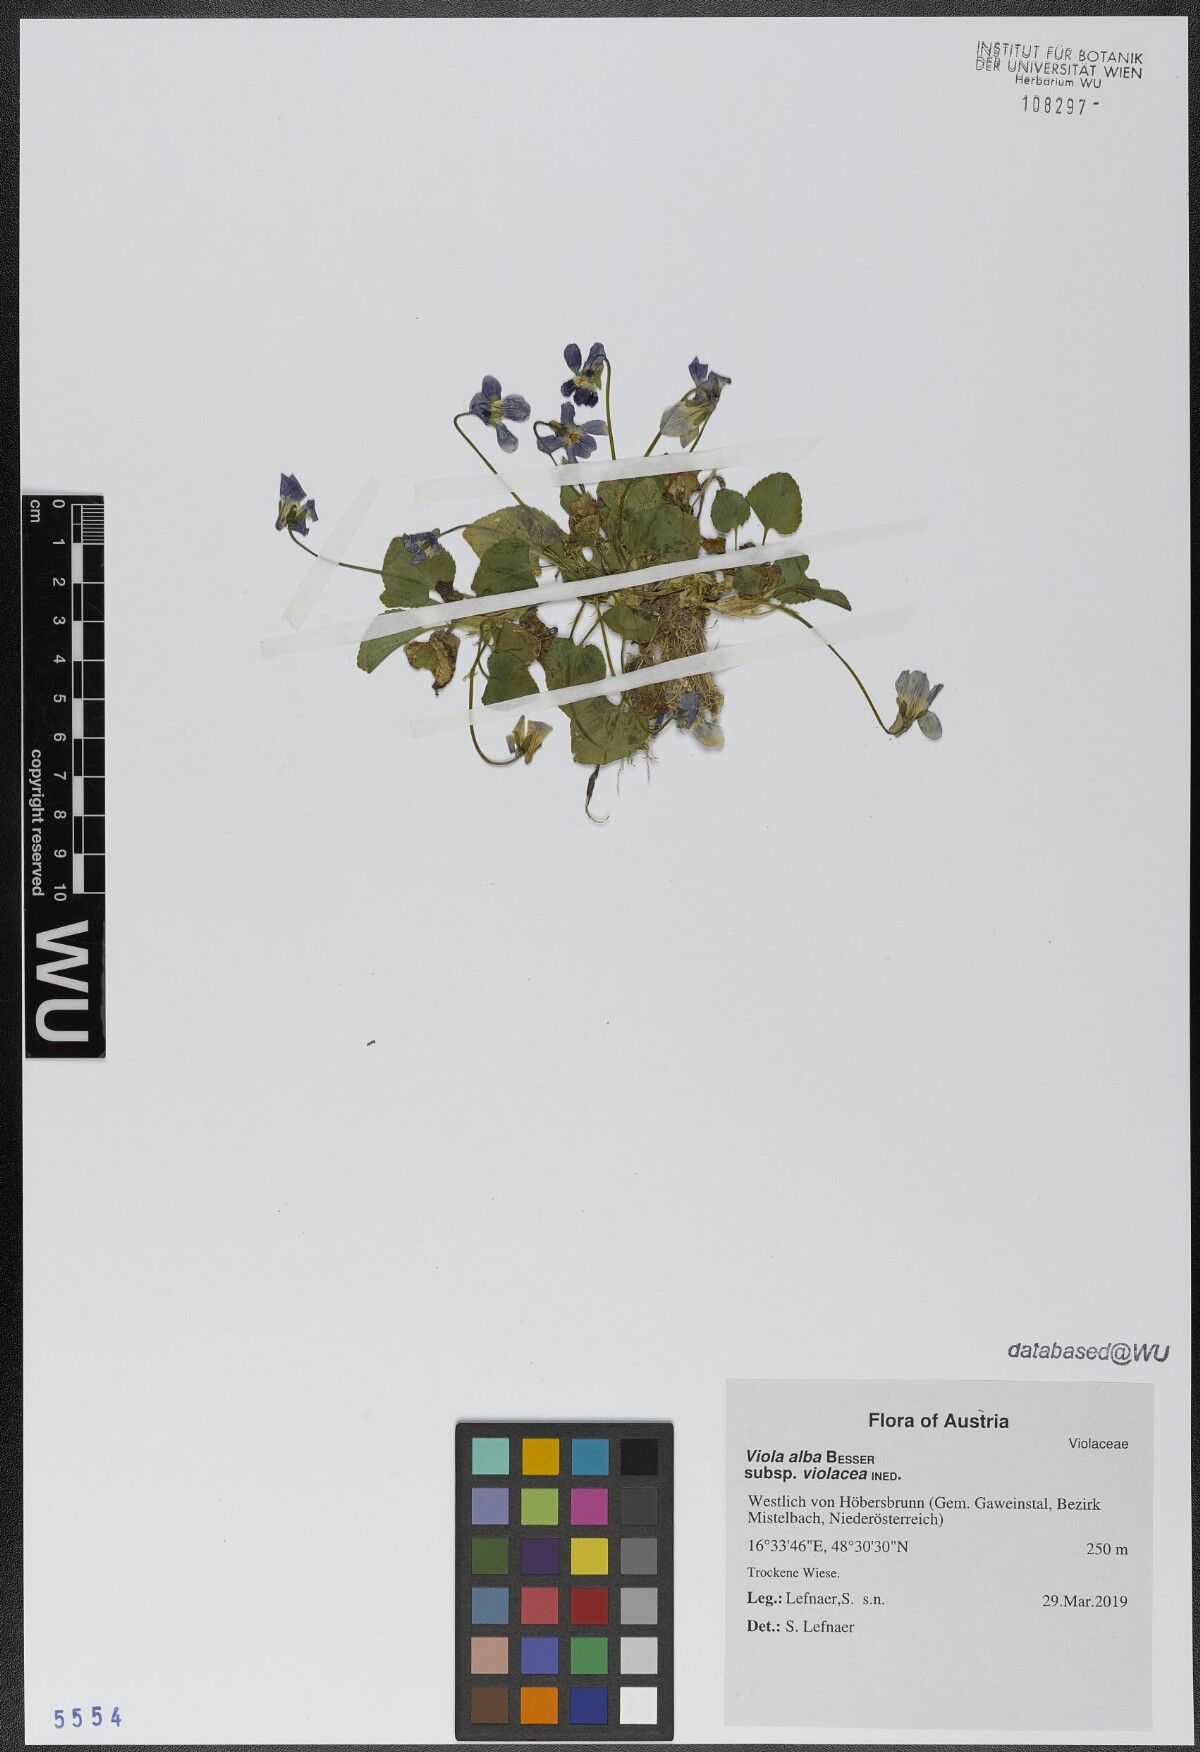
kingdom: Plantae
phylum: Tracheophyta
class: Magnoliopsida
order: Malpighiales
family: Violaceae
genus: Viola
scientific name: Viola alba
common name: White violet
